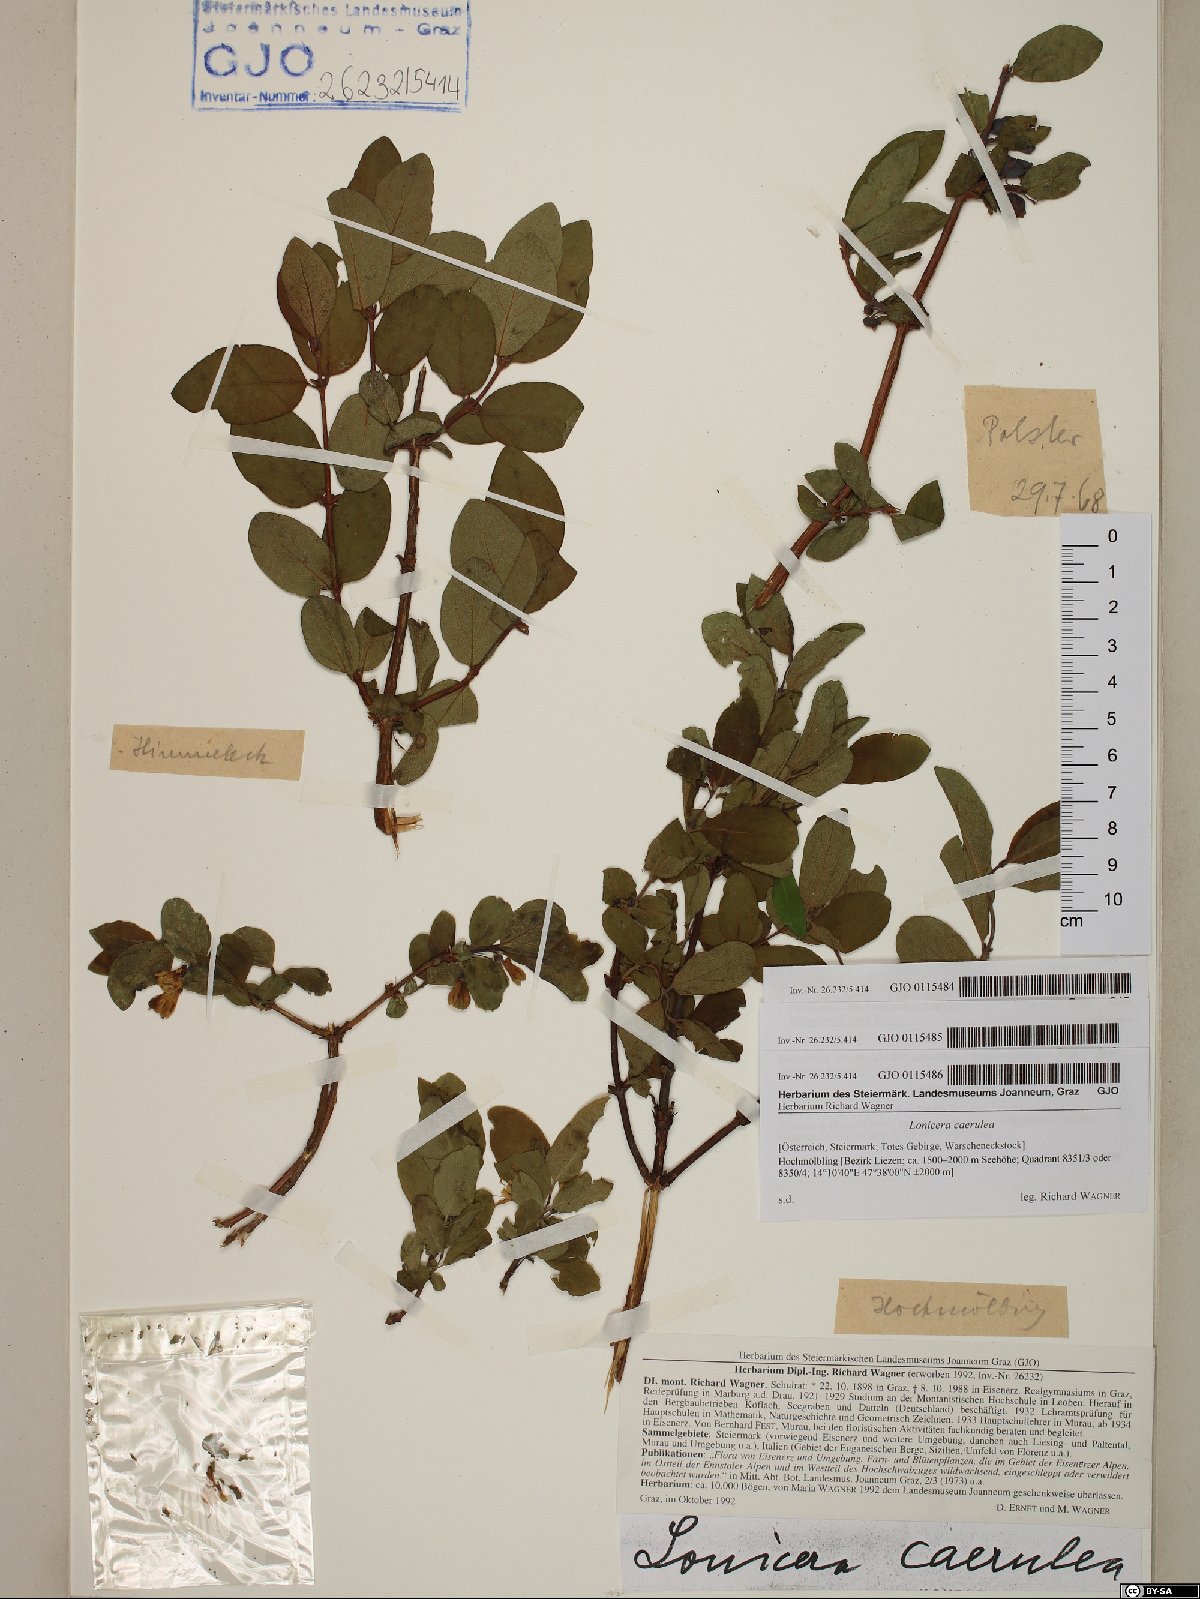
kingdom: Plantae
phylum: Tracheophyta
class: Magnoliopsida
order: Dipsacales
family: Caprifoliaceae
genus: Lonicera
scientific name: Lonicera caerulea
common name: Blue honeysuckle
